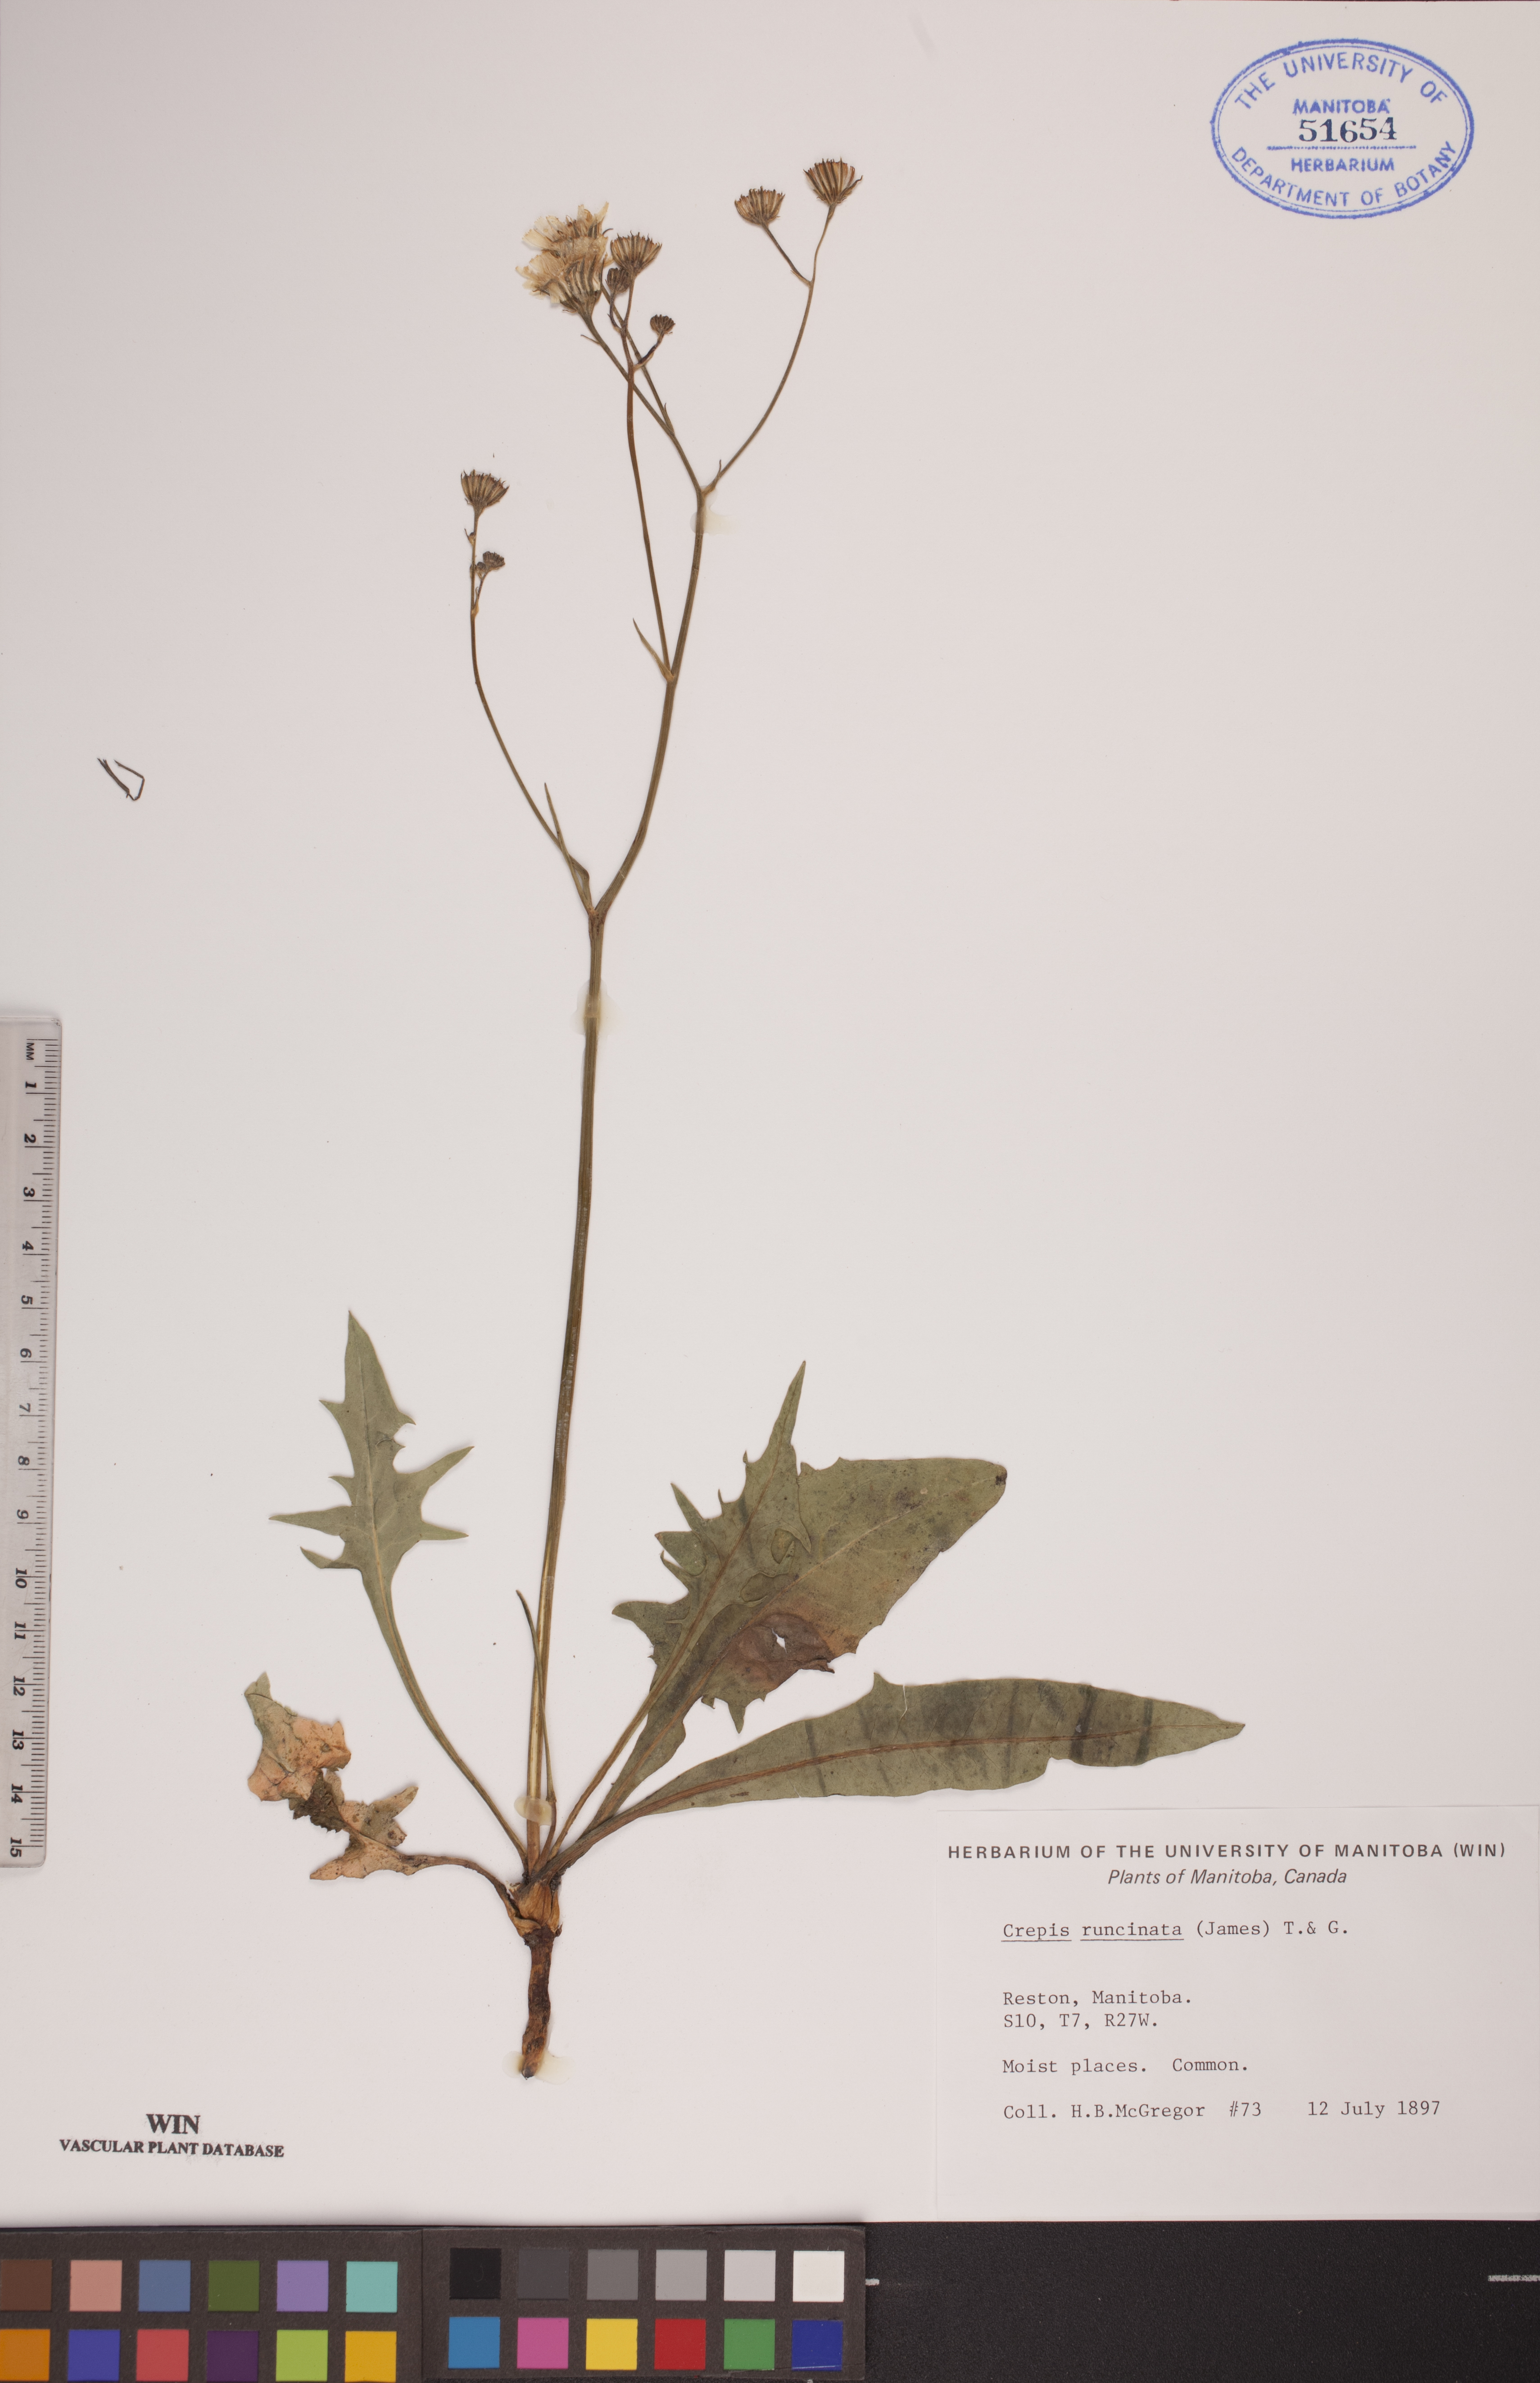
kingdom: Plantae
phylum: Tracheophyta
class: Magnoliopsida
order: Asterales
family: Asteraceae
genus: Crepis
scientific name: Crepis runcinata
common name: Dandelion hawksbeard
